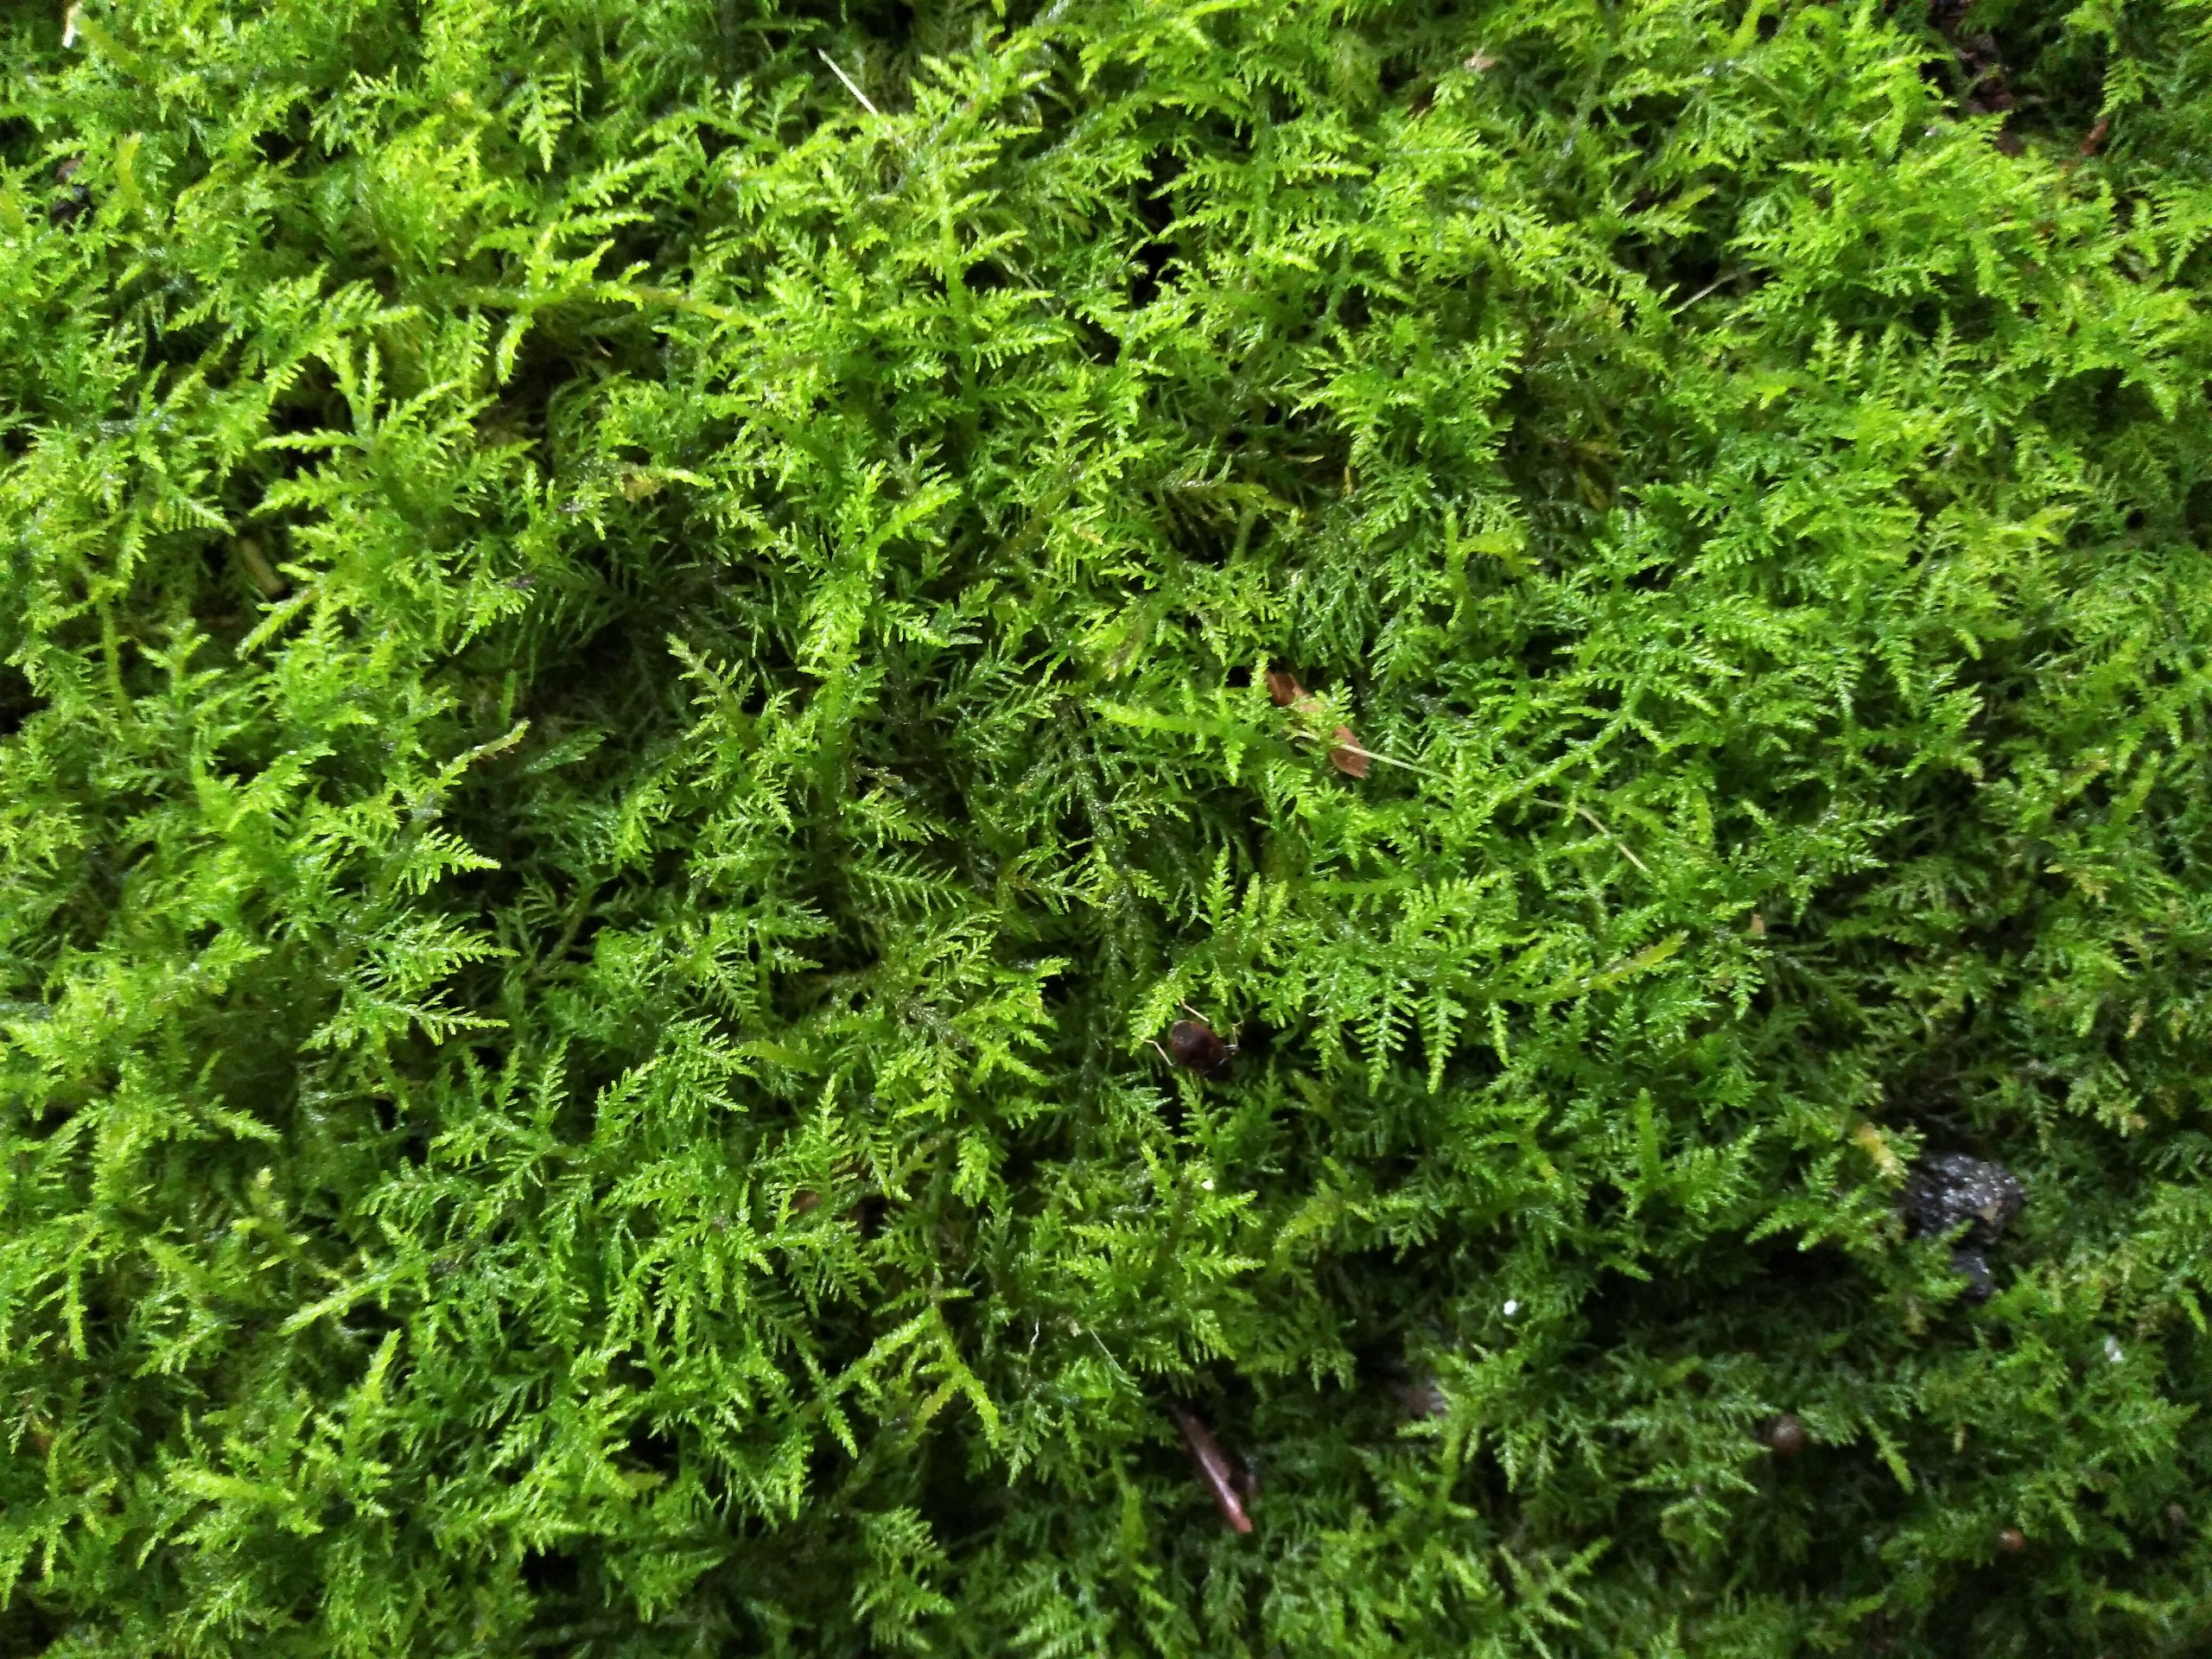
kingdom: Plantae
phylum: Bryophyta
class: Bryopsida
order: Hypnales
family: Thuidiaceae
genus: Thuidium
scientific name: Thuidium delicatulum
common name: Fingrenet bregnemos
